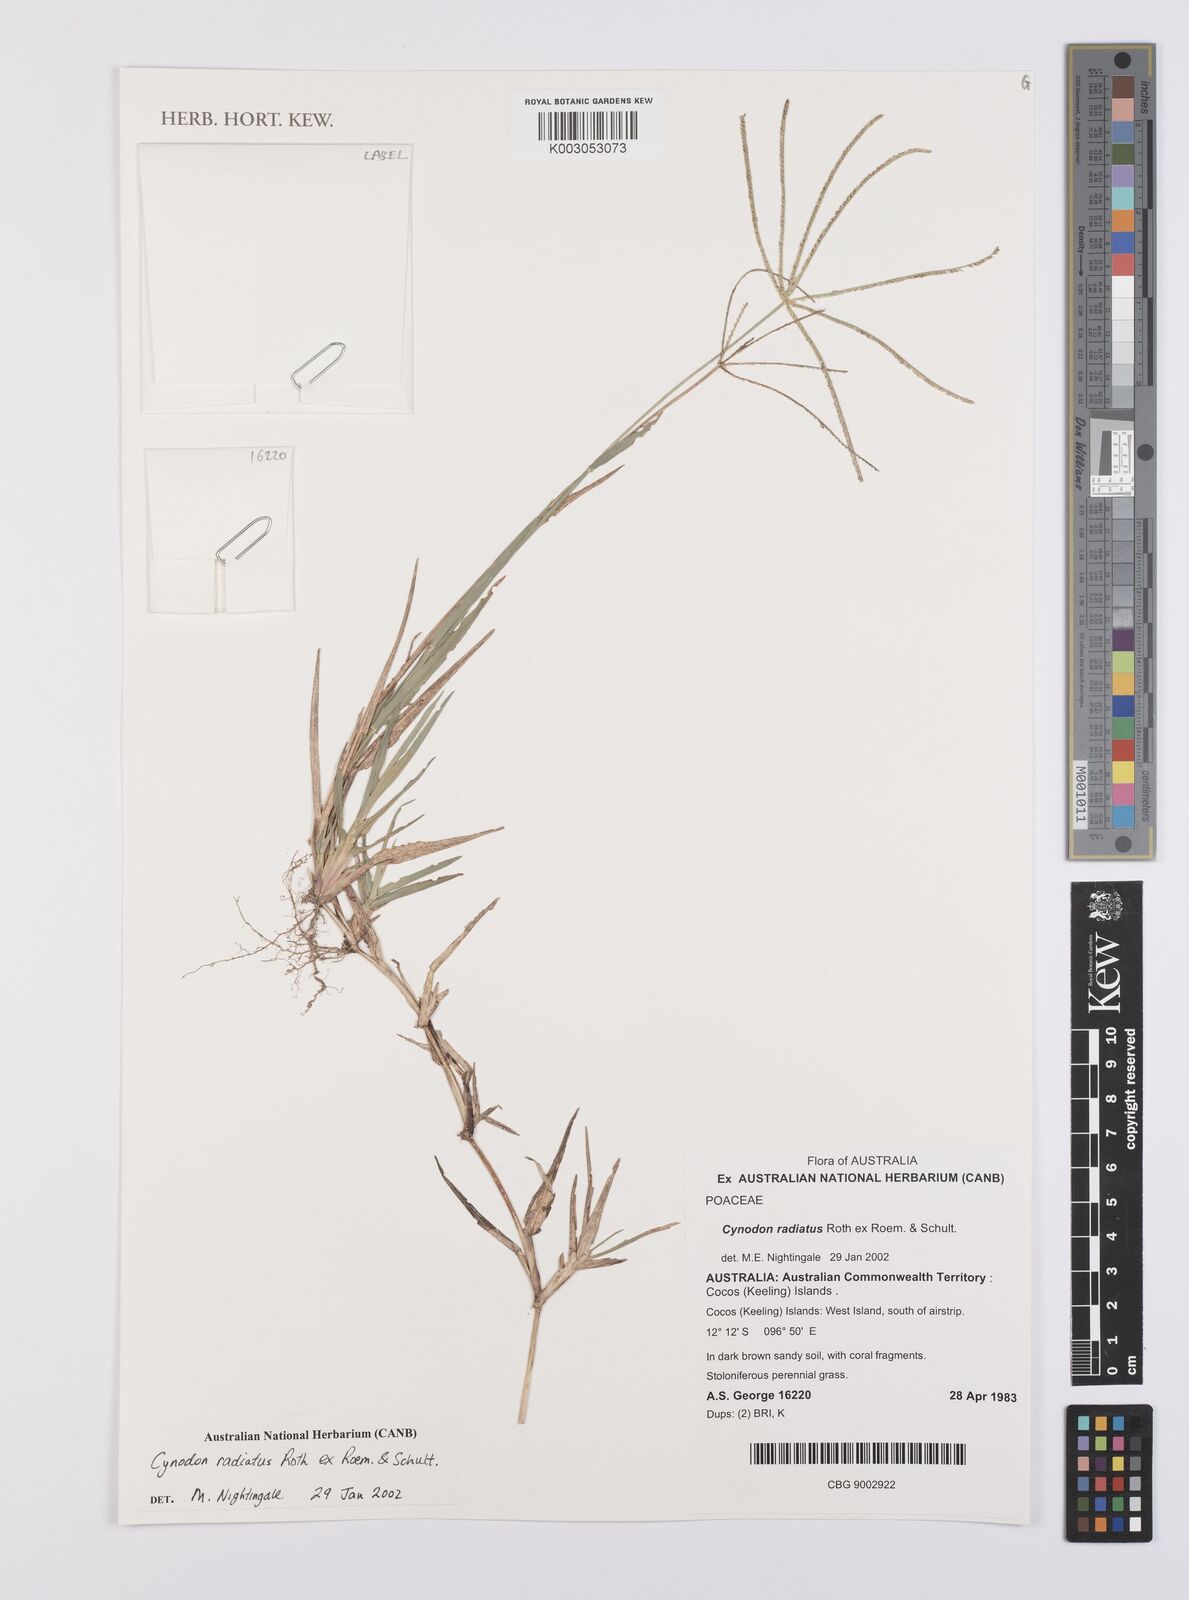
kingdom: Plantae
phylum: Tracheophyta
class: Liliopsida
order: Poales
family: Poaceae
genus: Cynodon
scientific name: Cynodon radiatus
